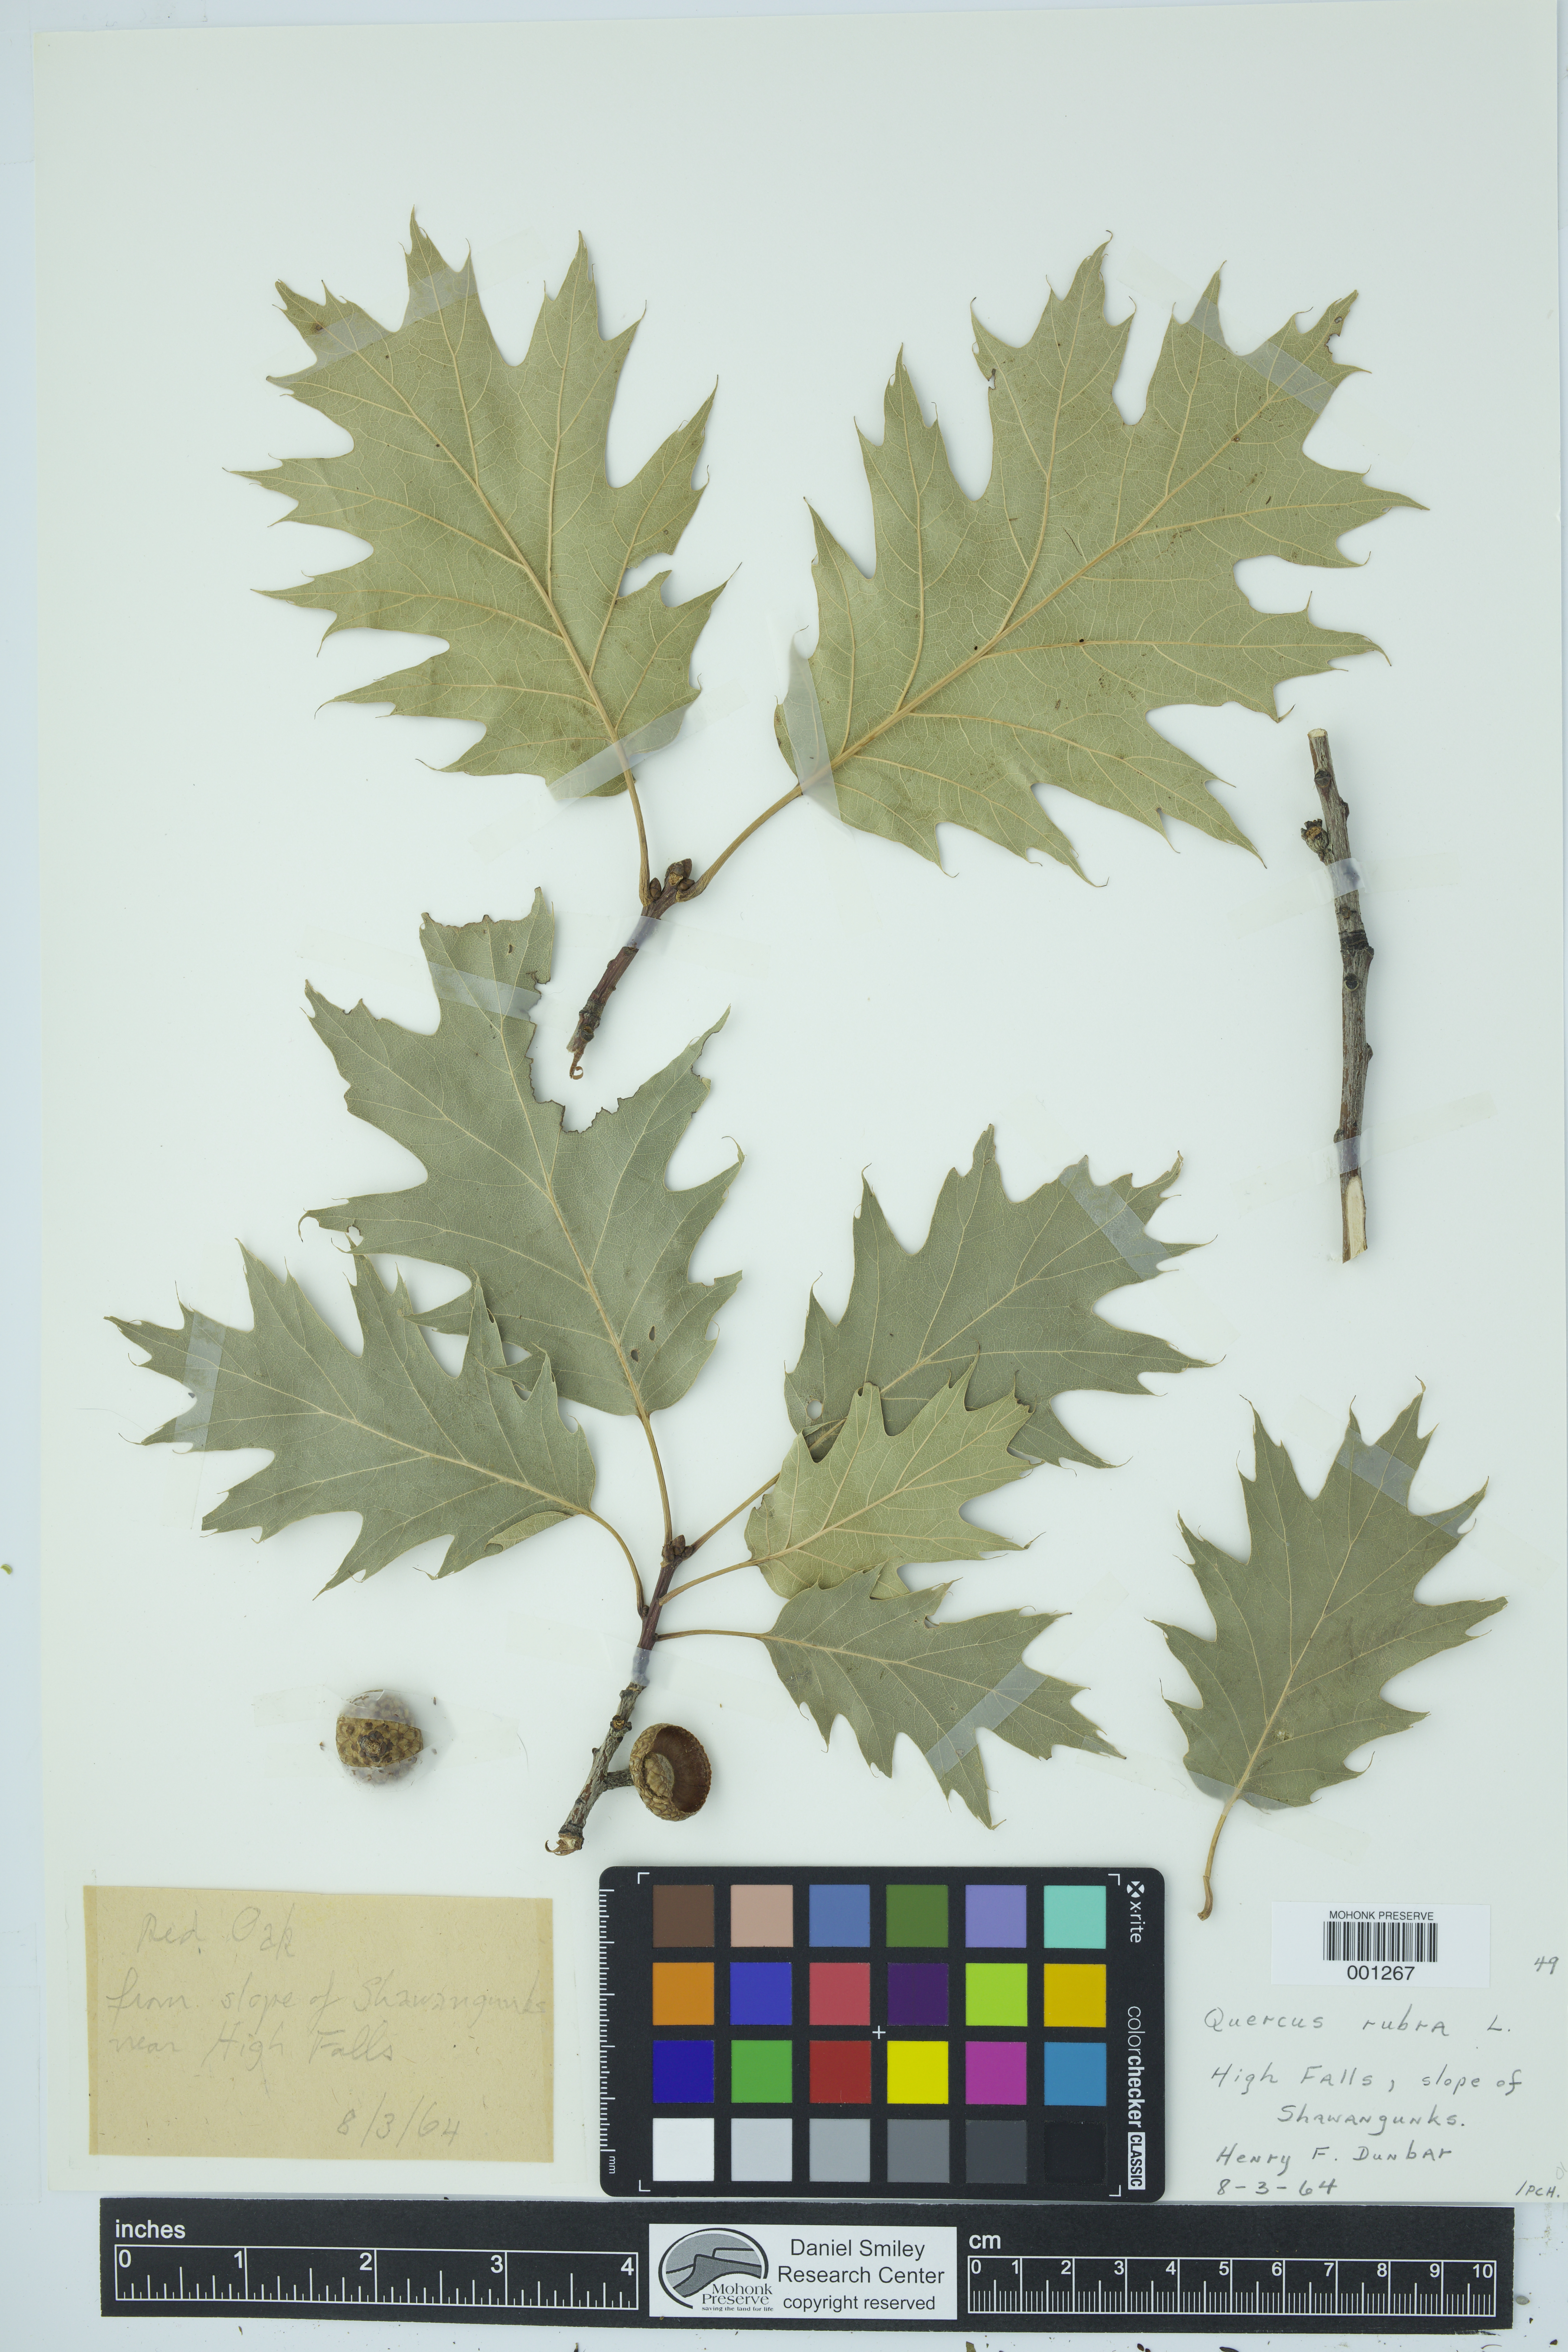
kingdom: Plantae
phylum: Tracheophyta
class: Magnoliopsida
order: Fagales
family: Fagaceae
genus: Quercus
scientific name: Quercus rubra
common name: Red oak
